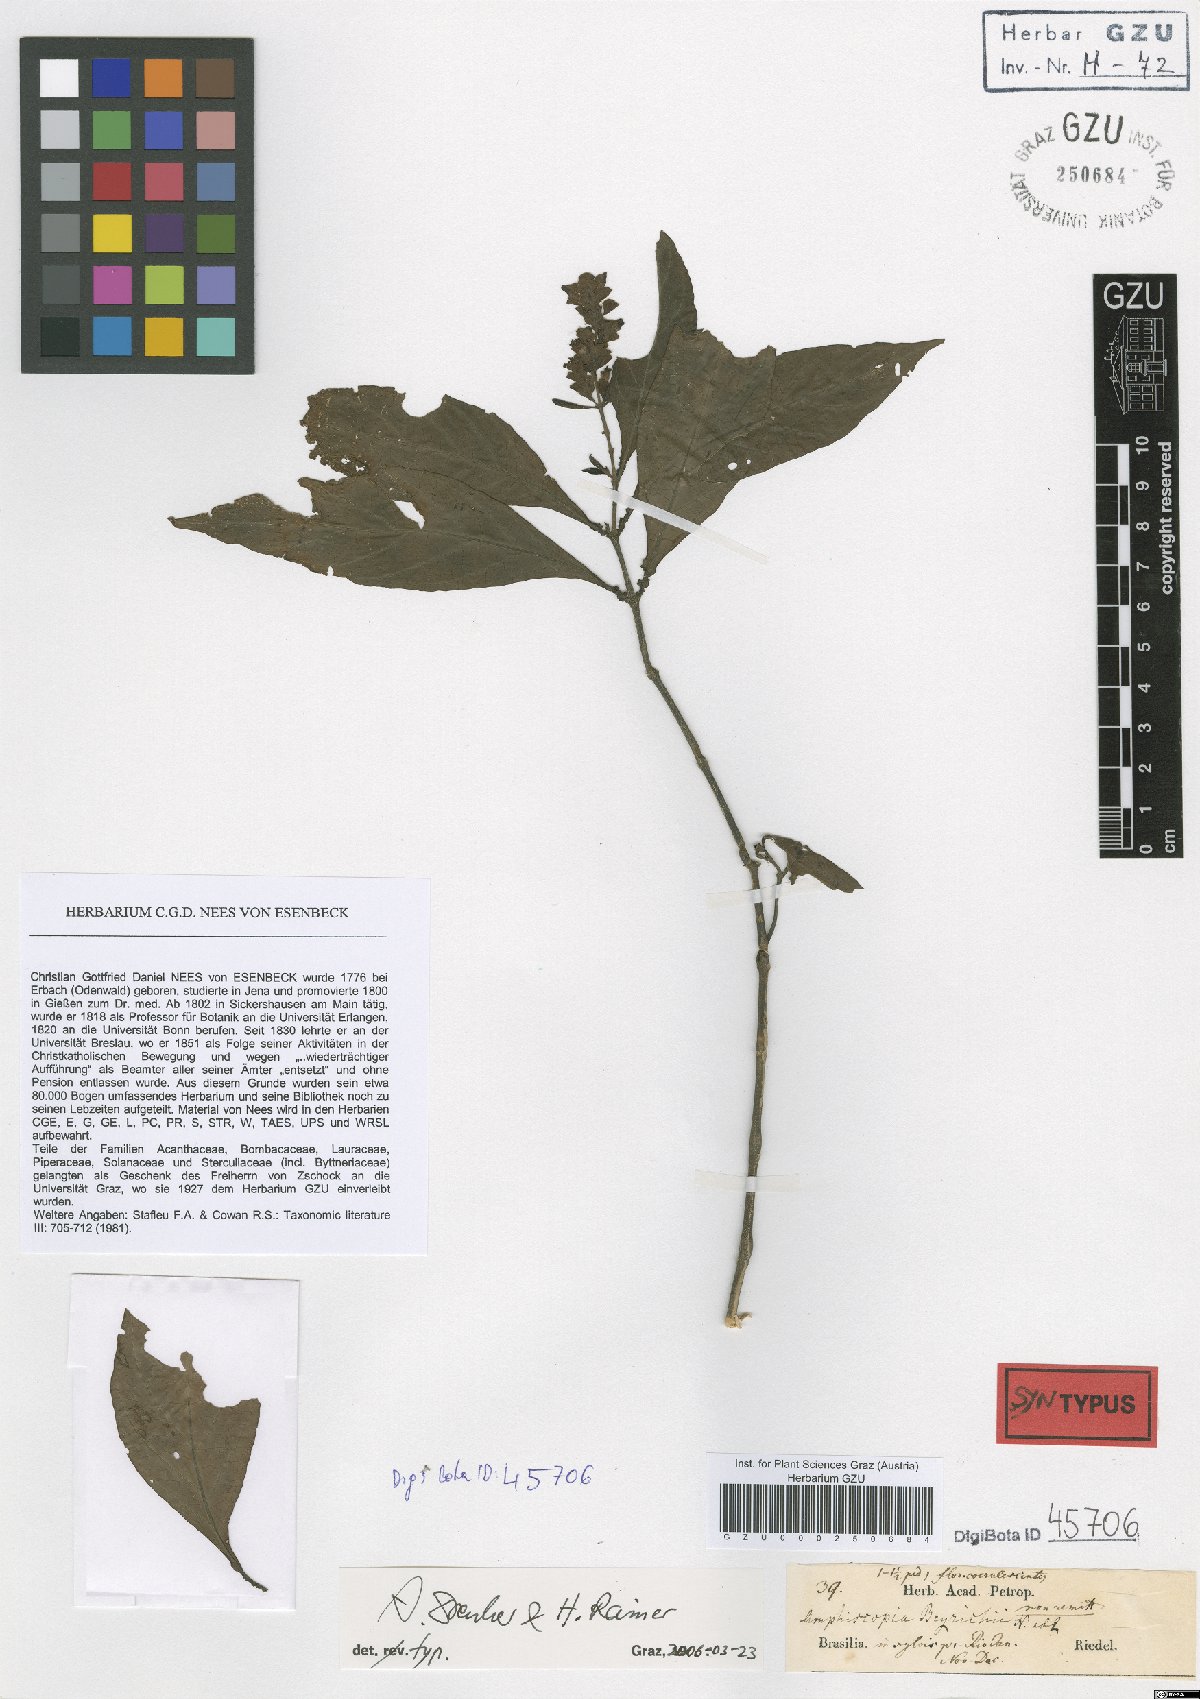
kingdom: Plantae
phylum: Tracheophyta
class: Magnoliopsida
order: Lamiales
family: Acanthaceae
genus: Dianthera
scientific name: Dianthera brasiliensis
